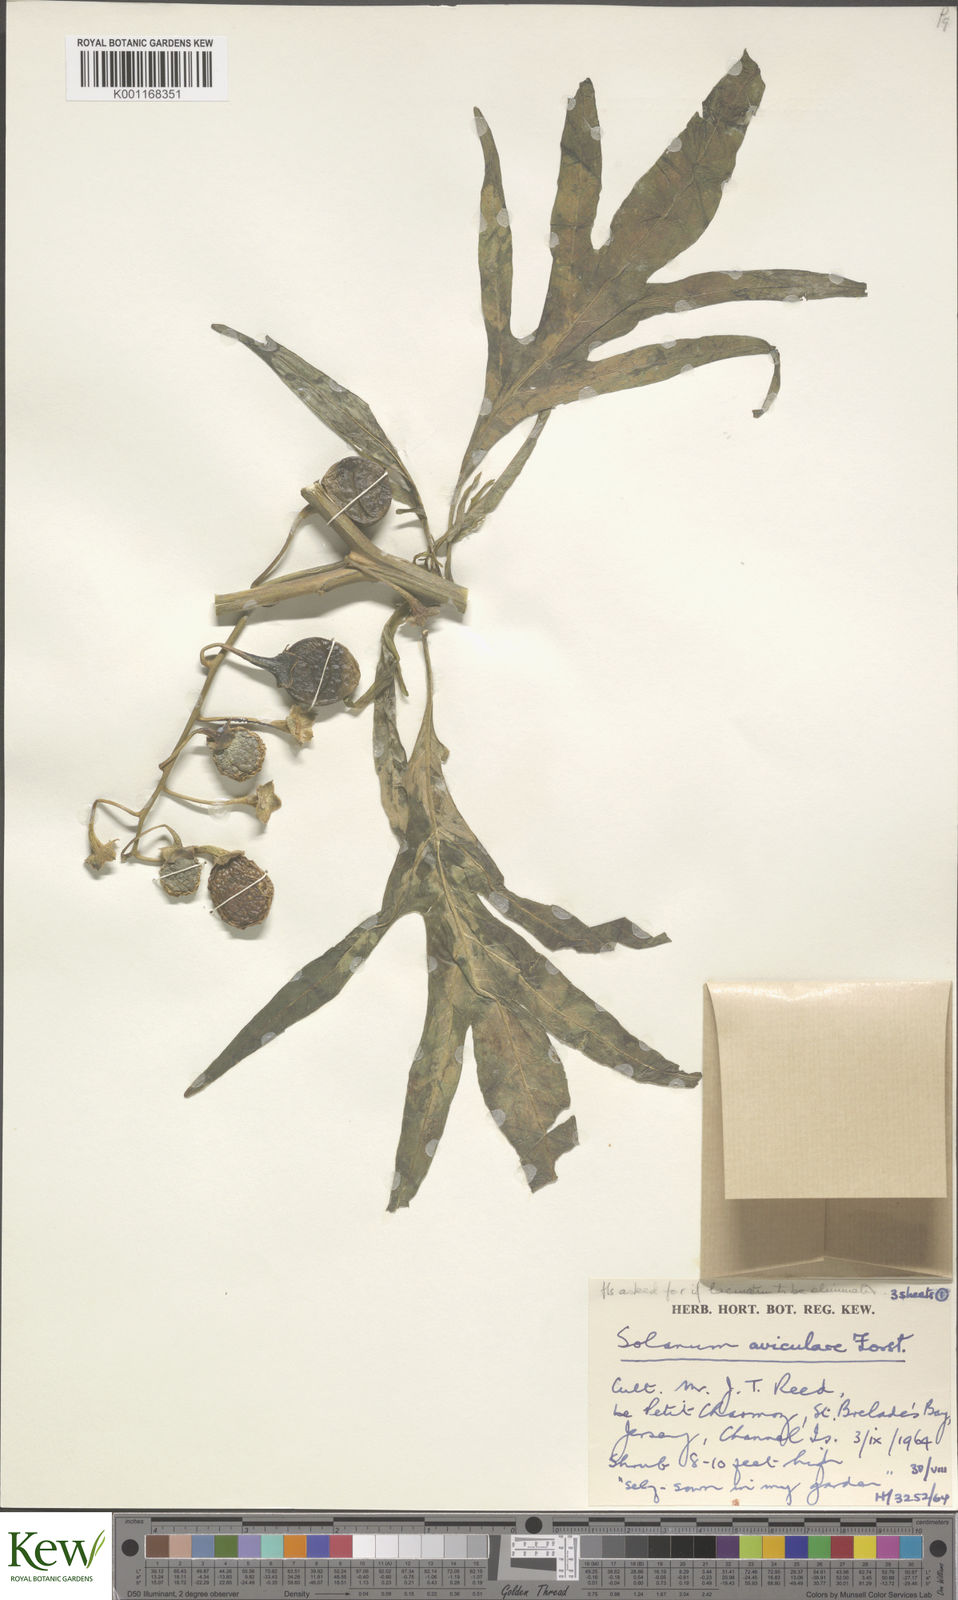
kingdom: Plantae
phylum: Tracheophyta
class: Magnoliopsida
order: Solanales
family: Solanaceae
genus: Solanum
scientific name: Solanum aviculare
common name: New zealand nightshade
